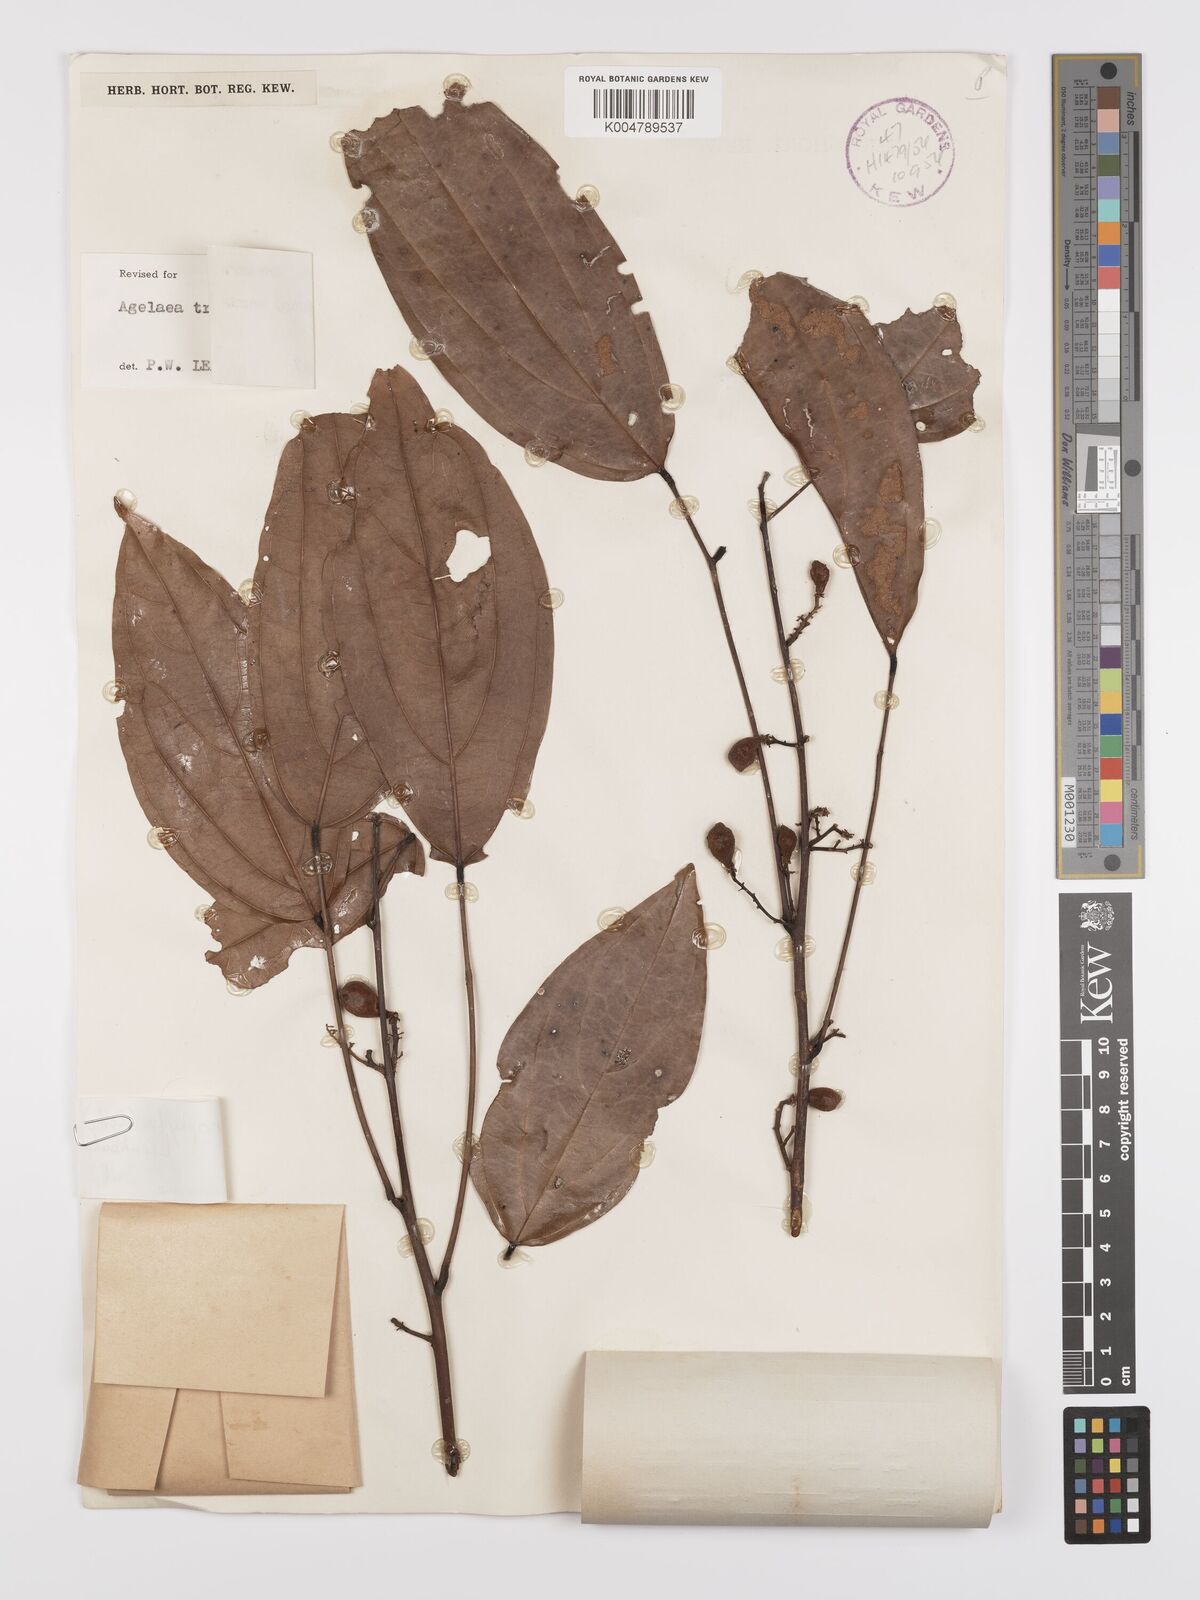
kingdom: Plantae
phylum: Tracheophyta
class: Magnoliopsida
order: Oxalidales
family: Connaraceae
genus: Agelaea
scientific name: Agelaea trinervis
